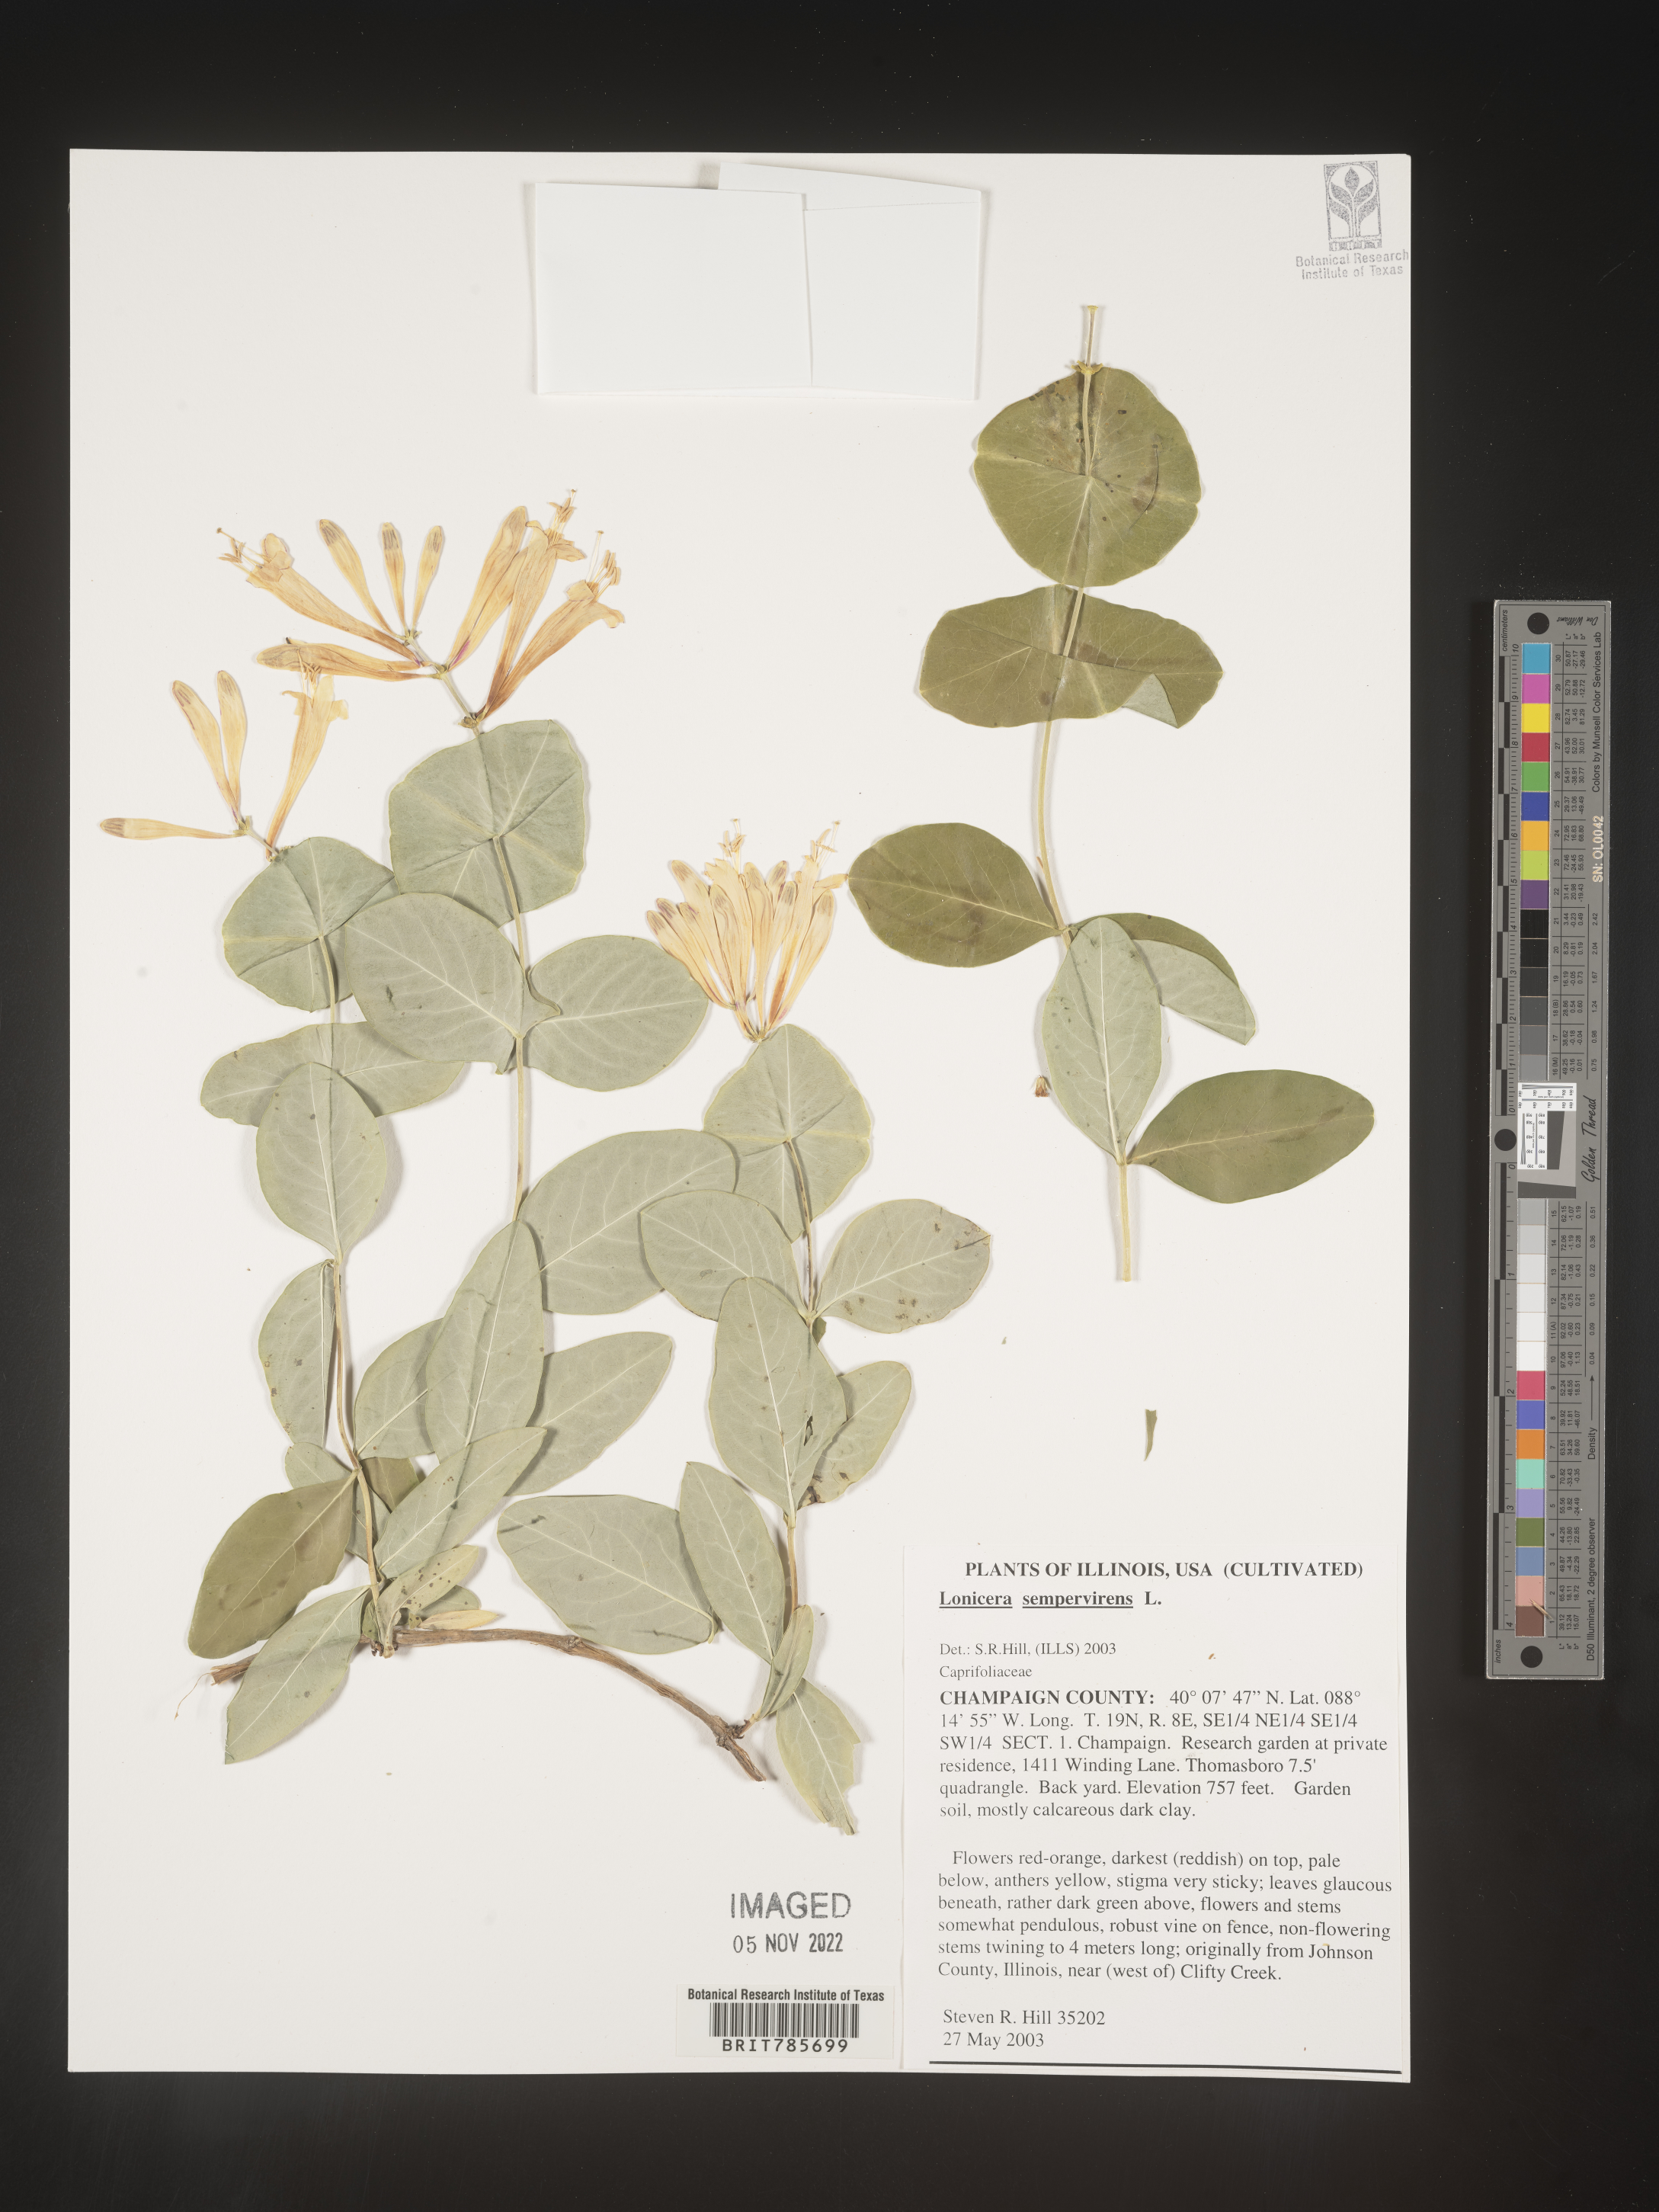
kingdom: Plantae
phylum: Tracheophyta
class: Magnoliopsida
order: Dipsacales
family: Caprifoliaceae
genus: Lonicera
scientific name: Lonicera
